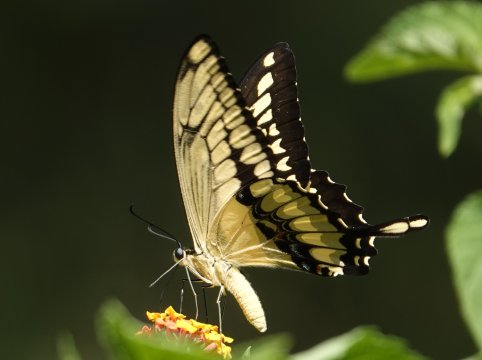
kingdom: Animalia
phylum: Arthropoda
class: Insecta
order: Lepidoptera
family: Papilionidae
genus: Papilio
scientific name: Papilio thoas
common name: Thoas Swallowtail
